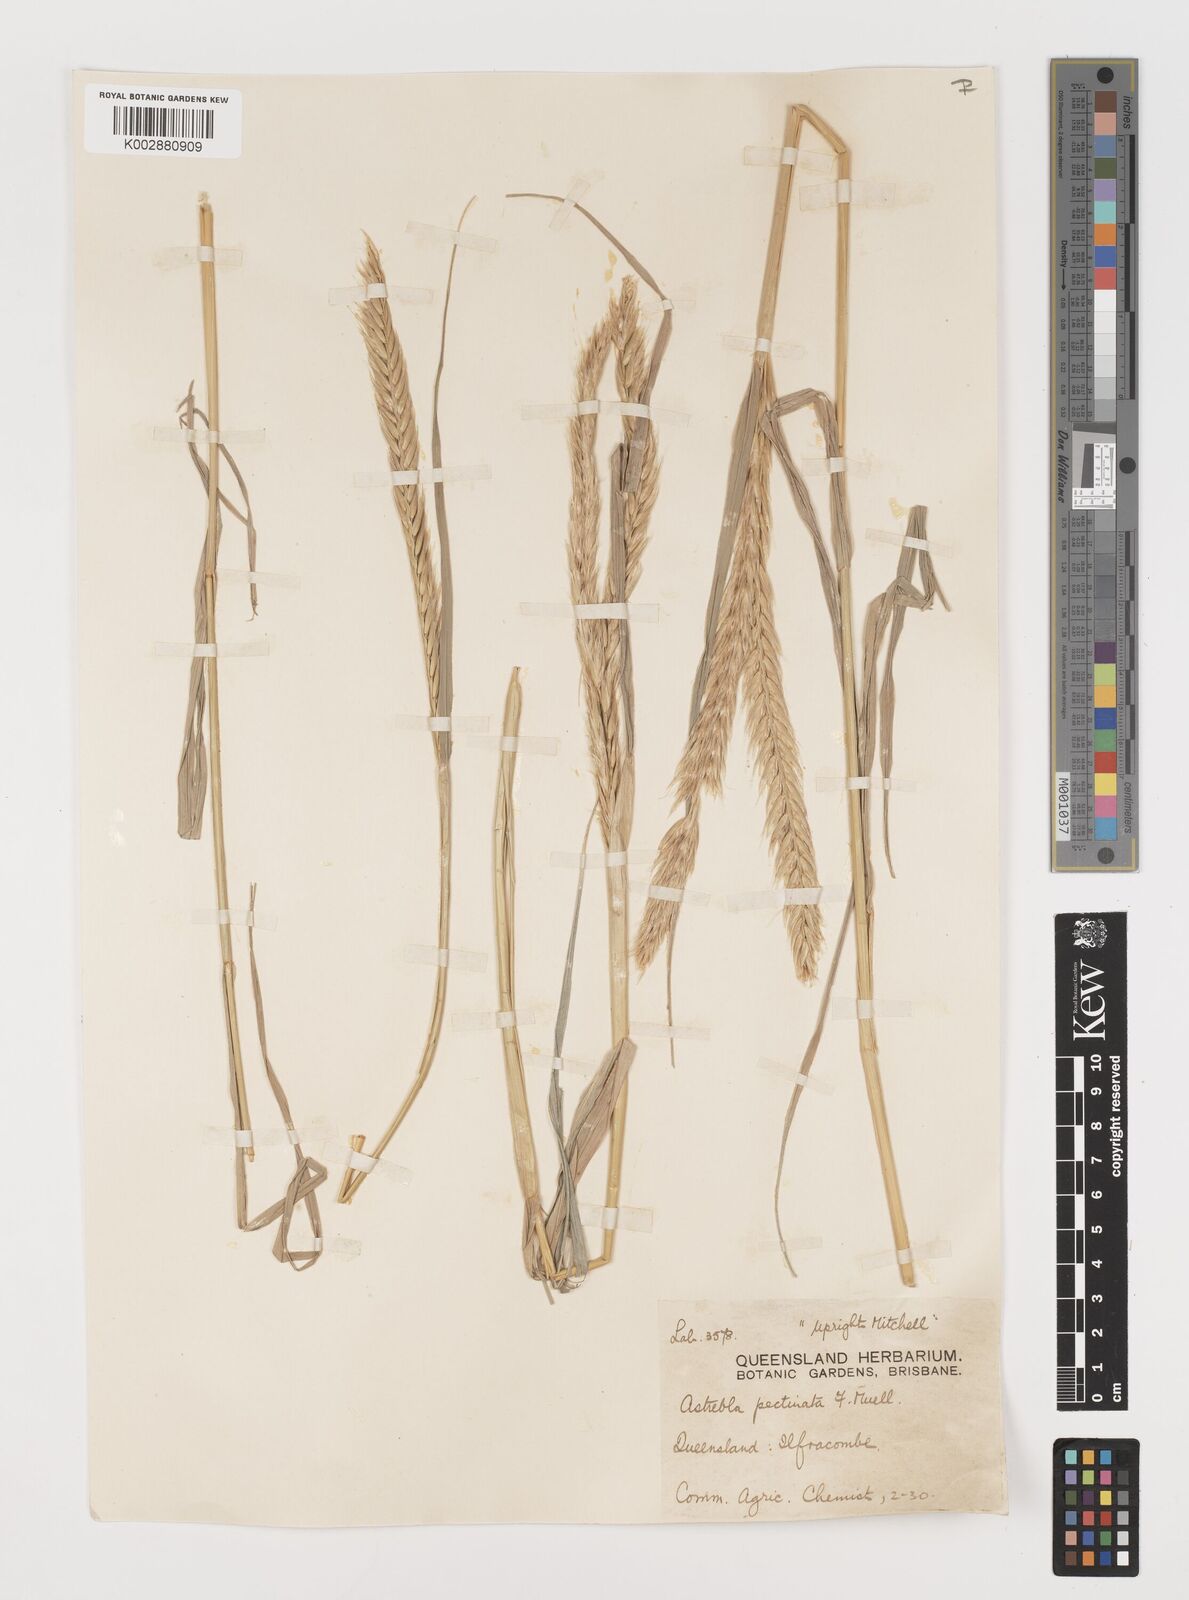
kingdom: Plantae
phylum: Tracheophyta
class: Liliopsida
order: Poales
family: Poaceae
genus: Astrebla
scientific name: Astrebla pectinata
